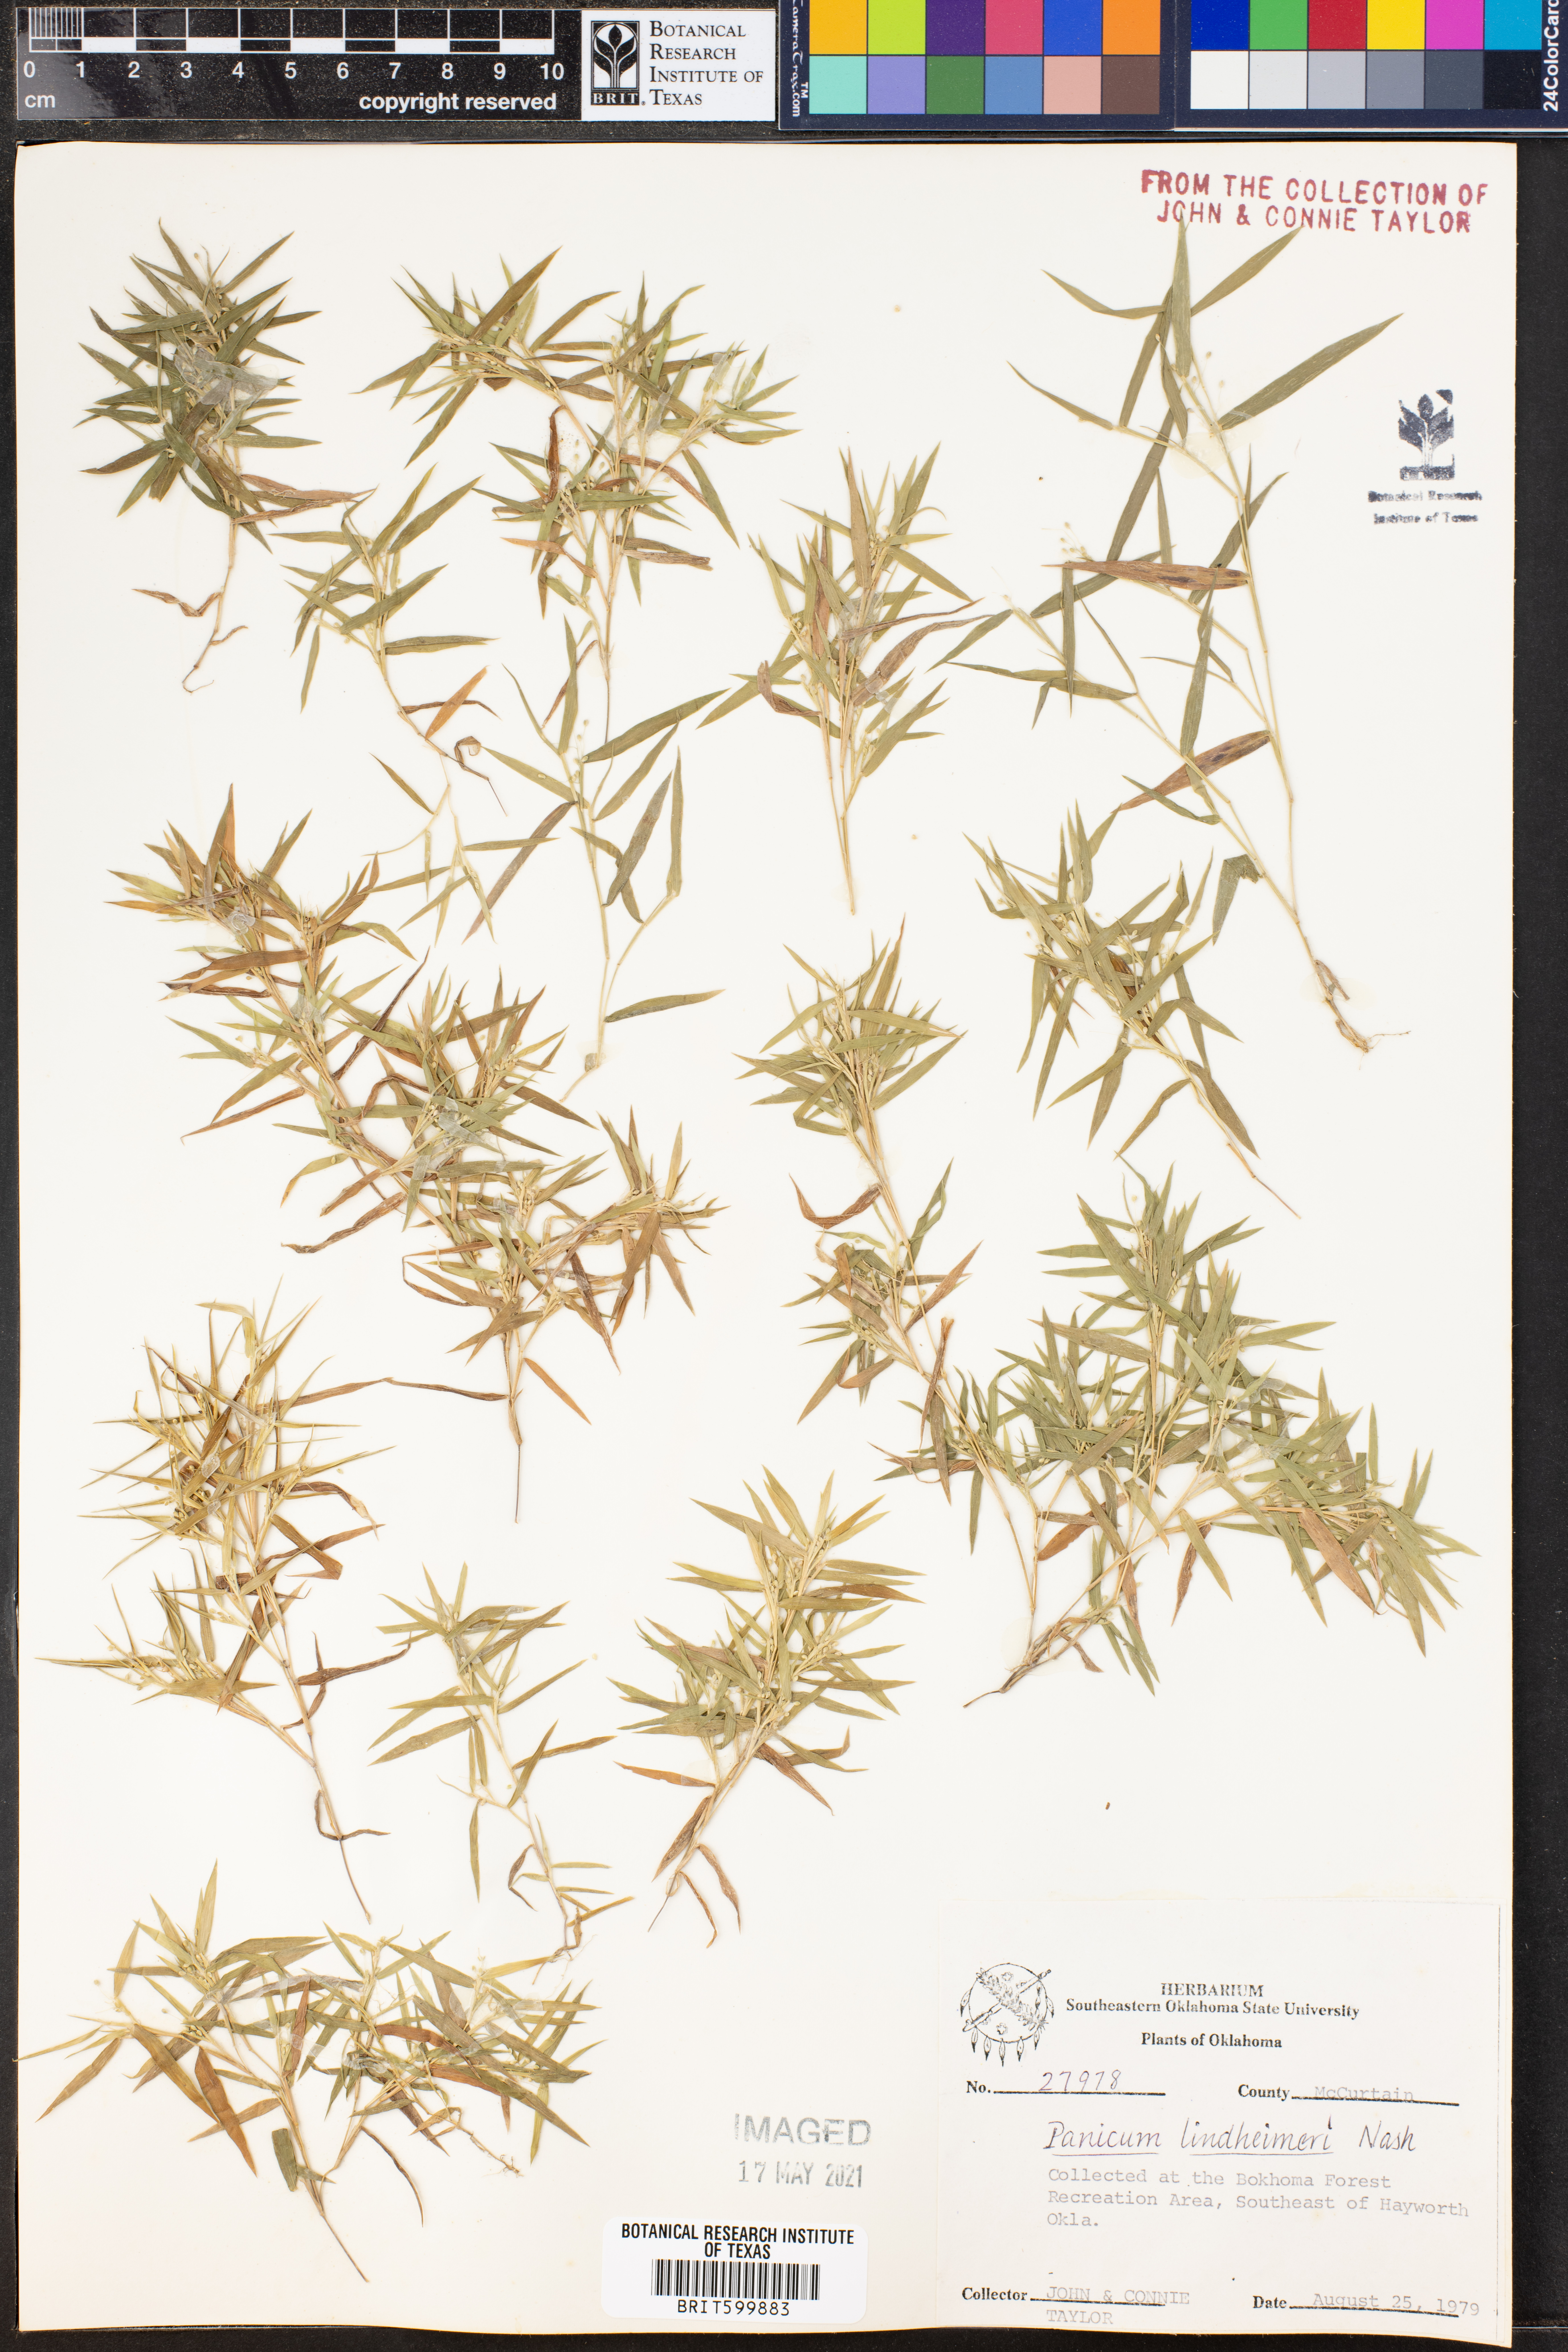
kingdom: Plantae
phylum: Tracheophyta
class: Liliopsida
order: Poales
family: Poaceae
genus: Dichanthelium
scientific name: Dichanthelium lindheimeri
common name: Lindheimer's panicgrass
